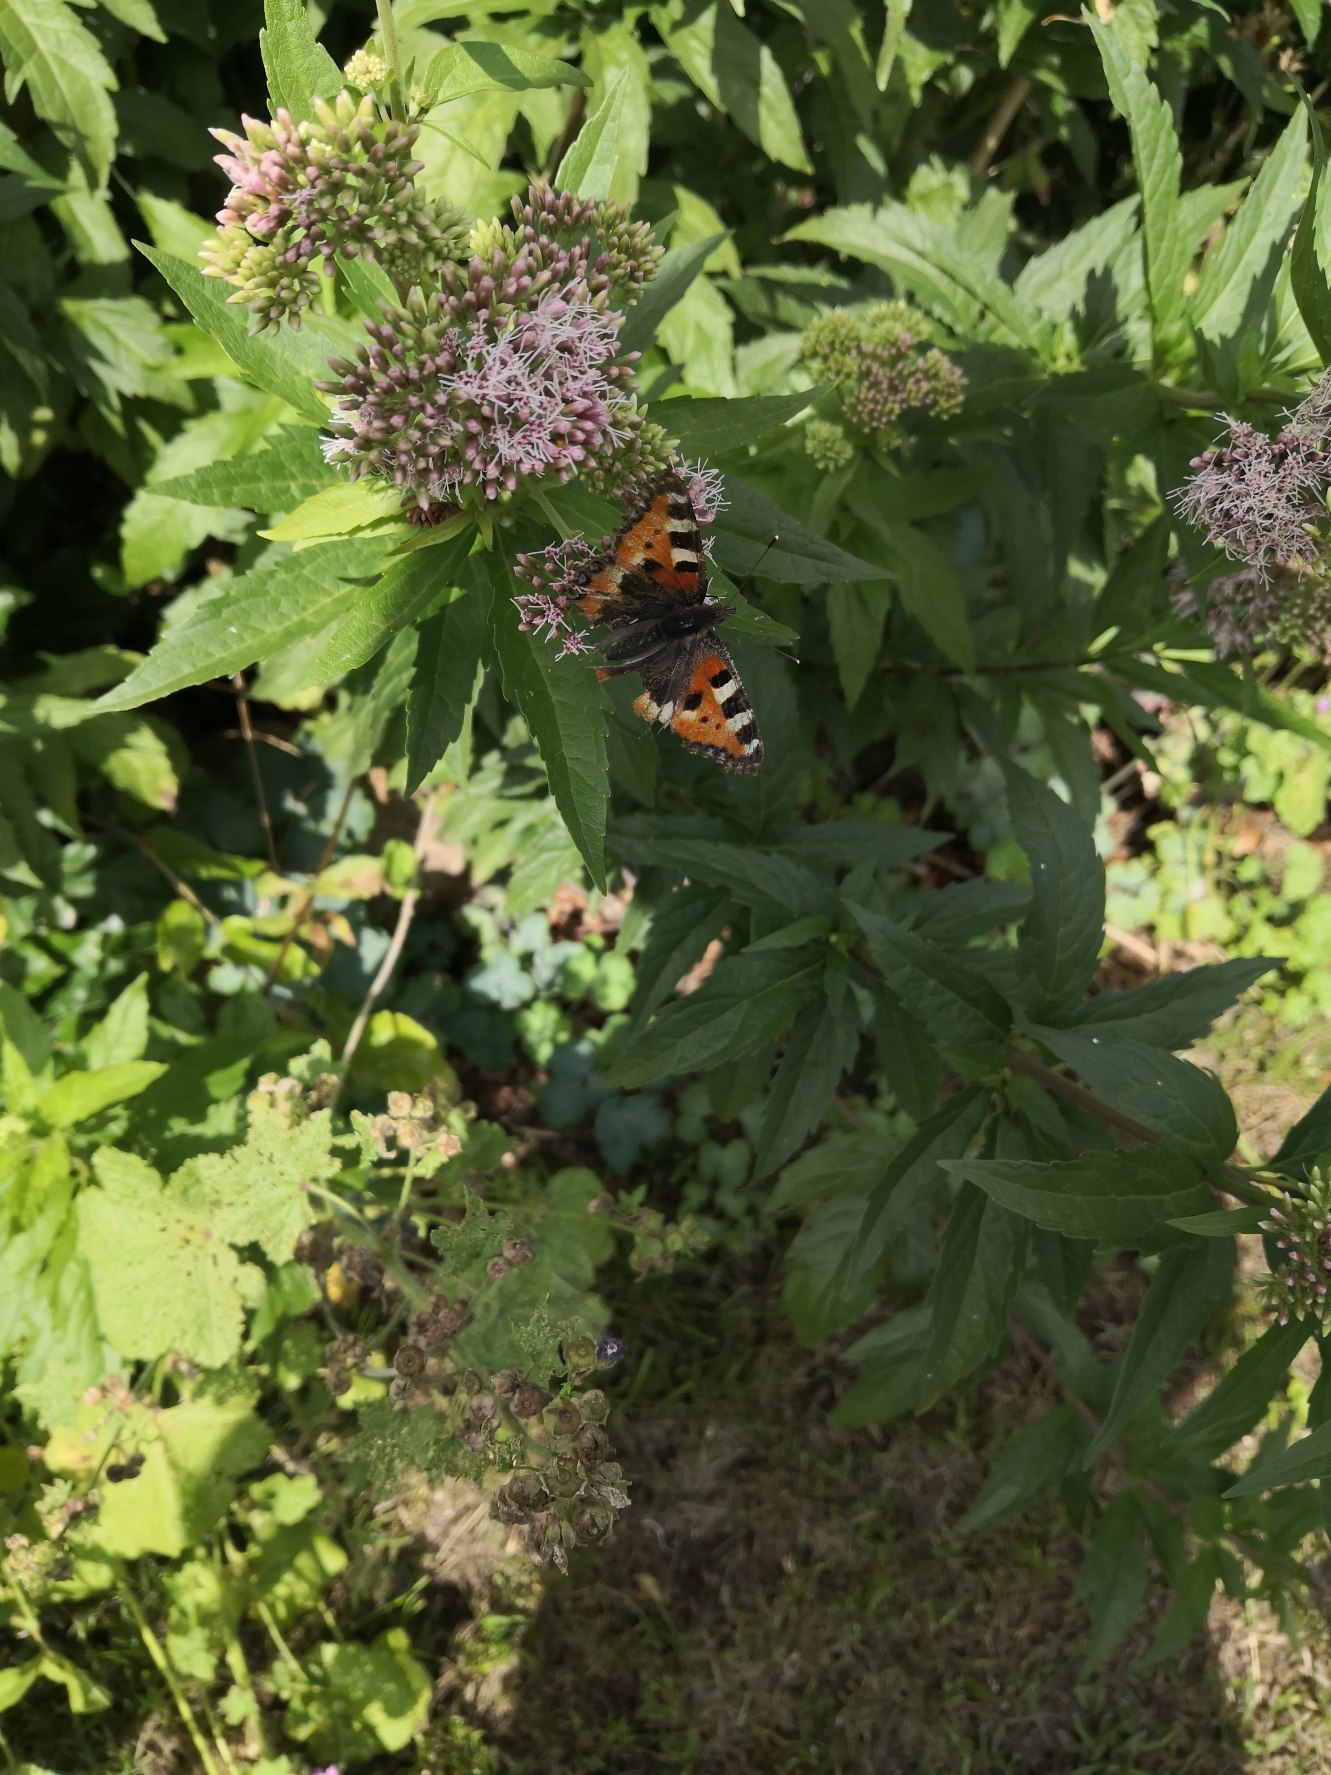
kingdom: Animalia
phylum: Arthropoda
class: Insecta
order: Lepidoptera
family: Nymphalidae
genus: Aglais
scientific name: Aglais urticae
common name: Nældens takvinge
